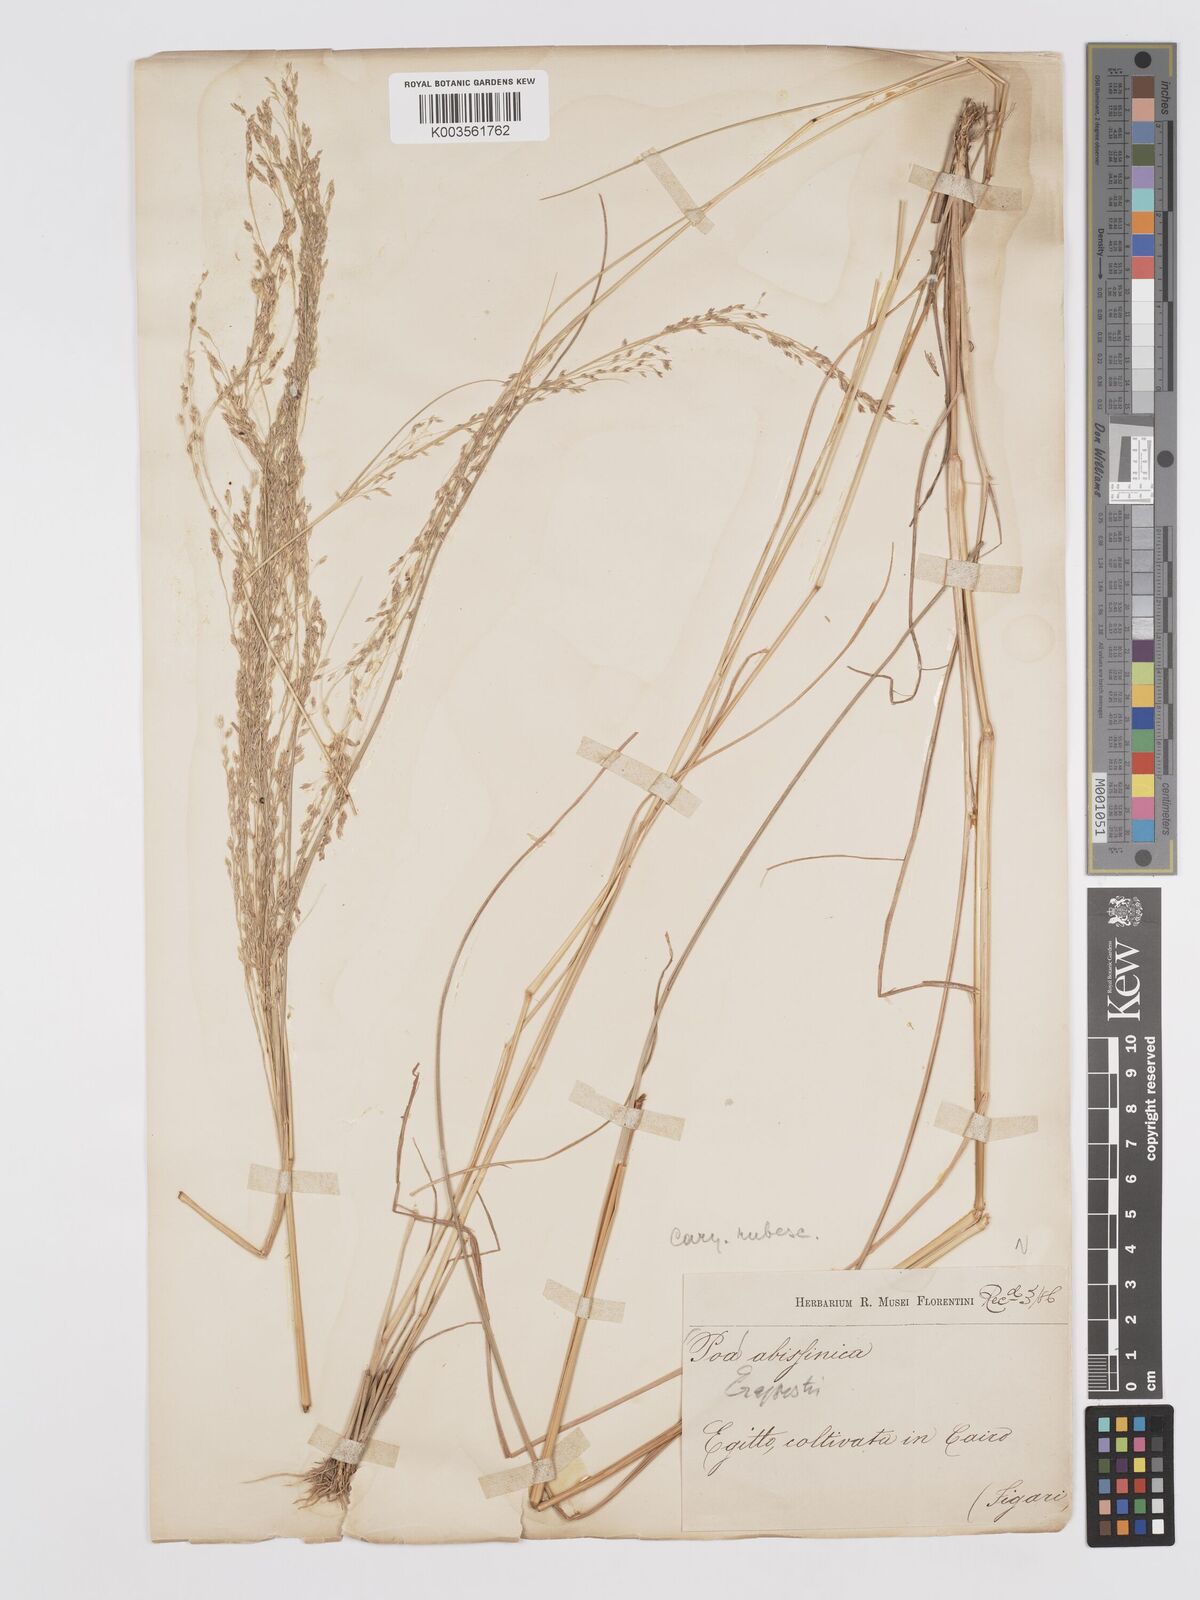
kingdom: Plantae
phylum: Tracheophyta
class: Liliopsida
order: Poales
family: Poaceae
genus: Eragrostis
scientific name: Eragrostis tef
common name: Teff
